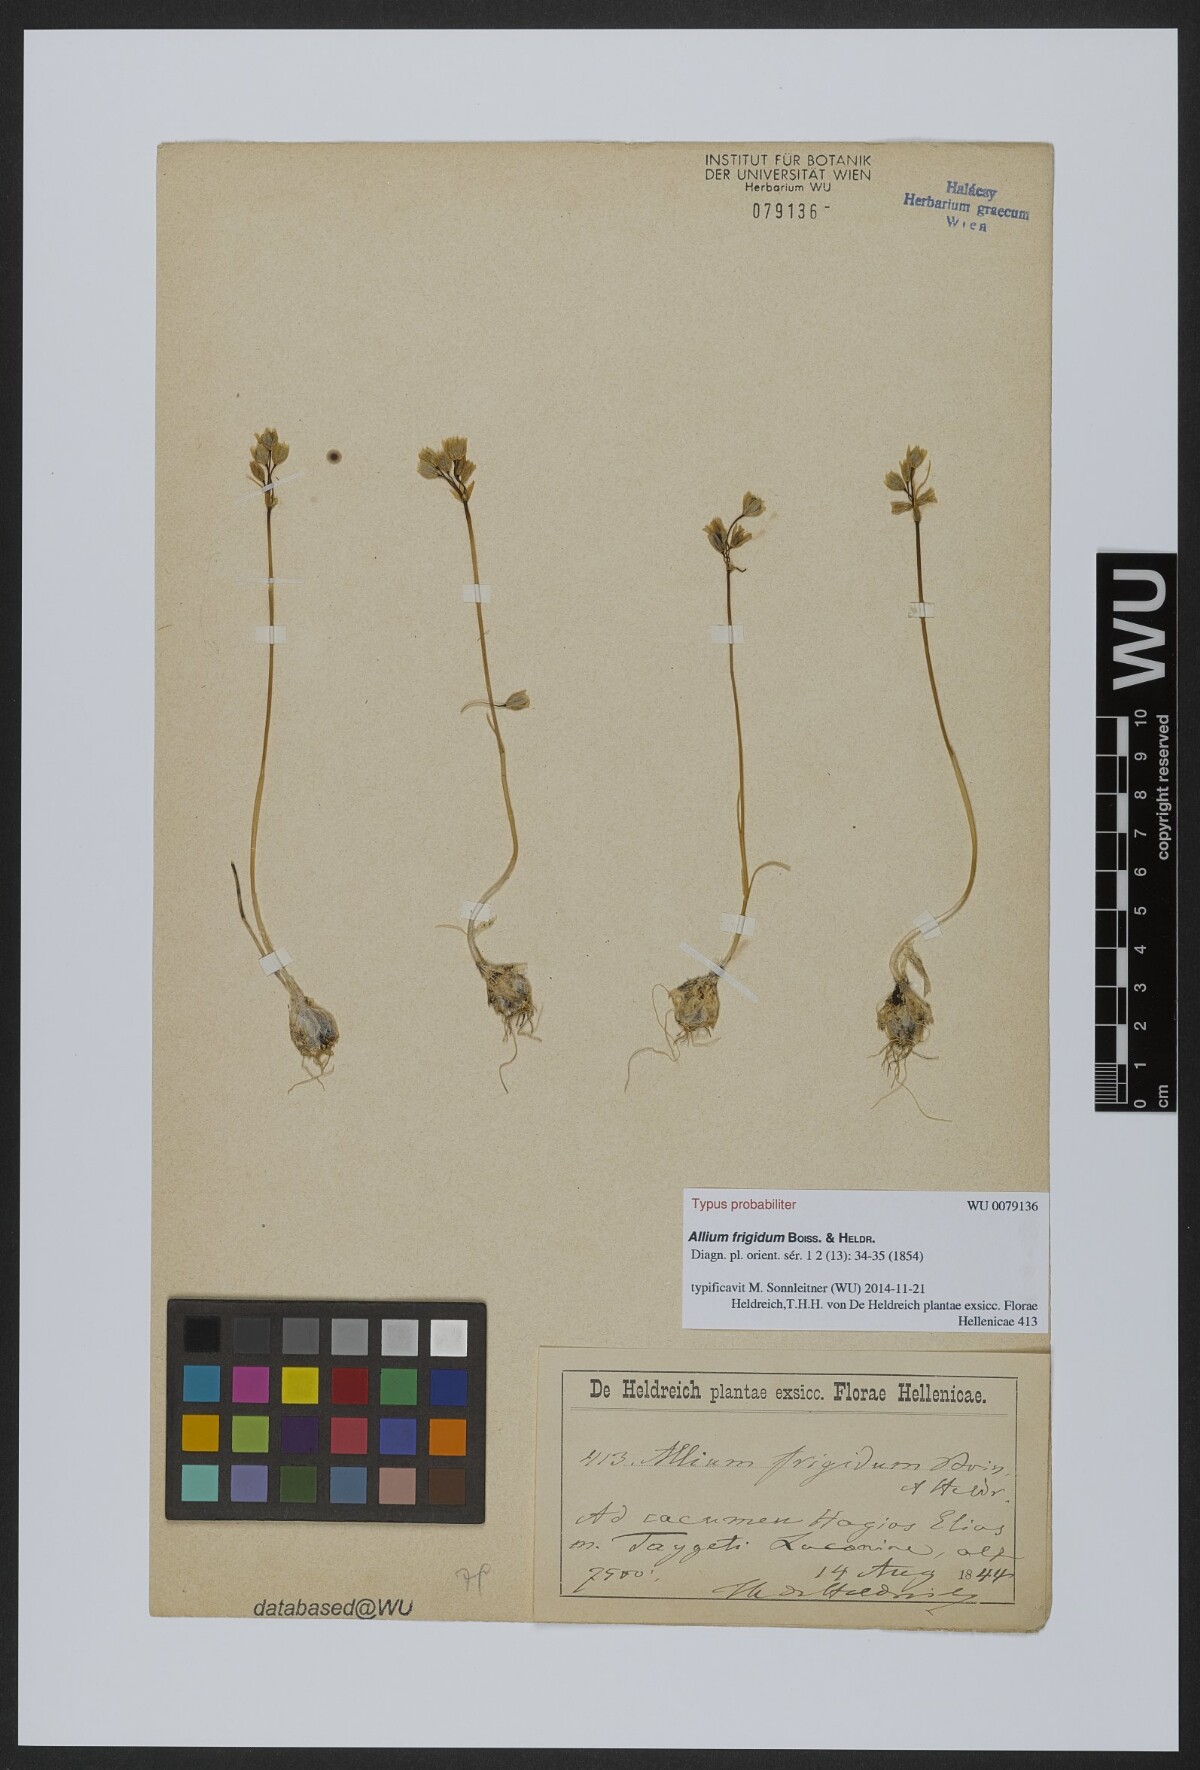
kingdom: Plantae
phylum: Tracheophyta
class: Liliopsida
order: Asparagales
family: Amaryllidaceae
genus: Allium
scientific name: Allium frigidum
